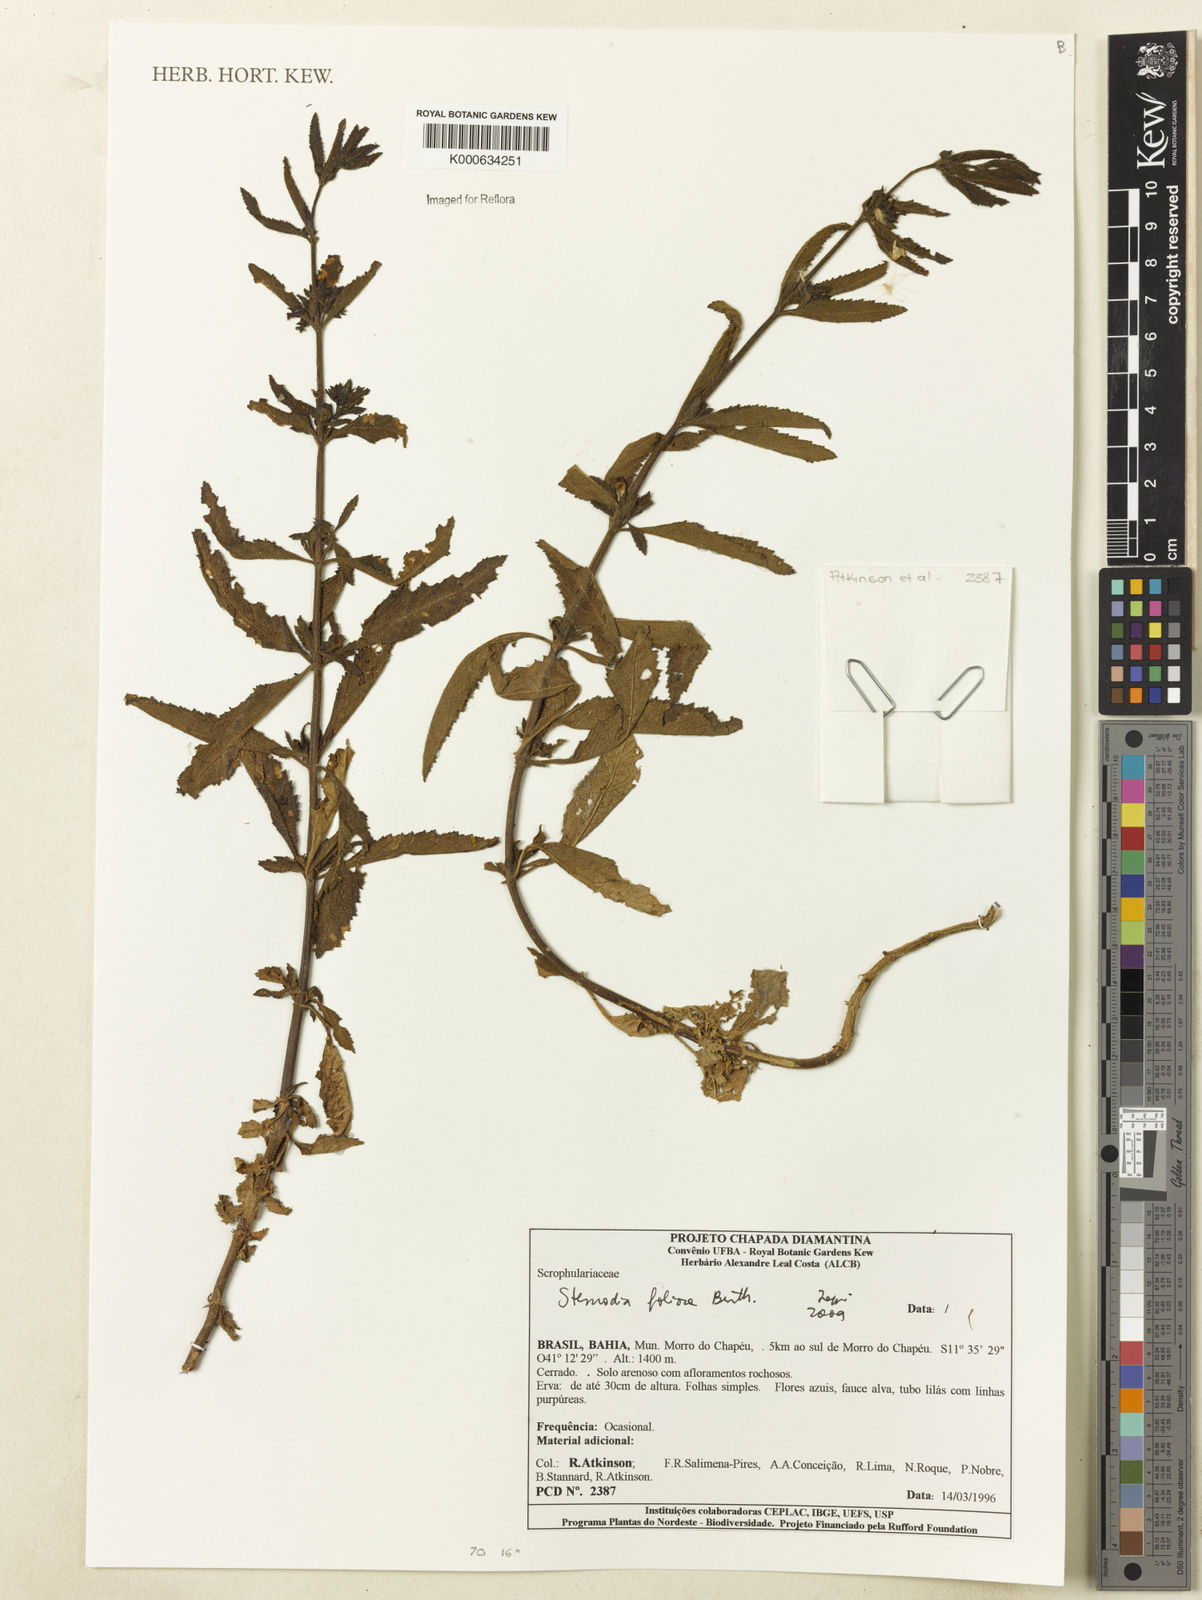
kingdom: Plantae
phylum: Tracheophyta
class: Magnoliopsida
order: Lamiales
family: Plantaginaceae
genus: Stemodia
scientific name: Stemodia foliosa
